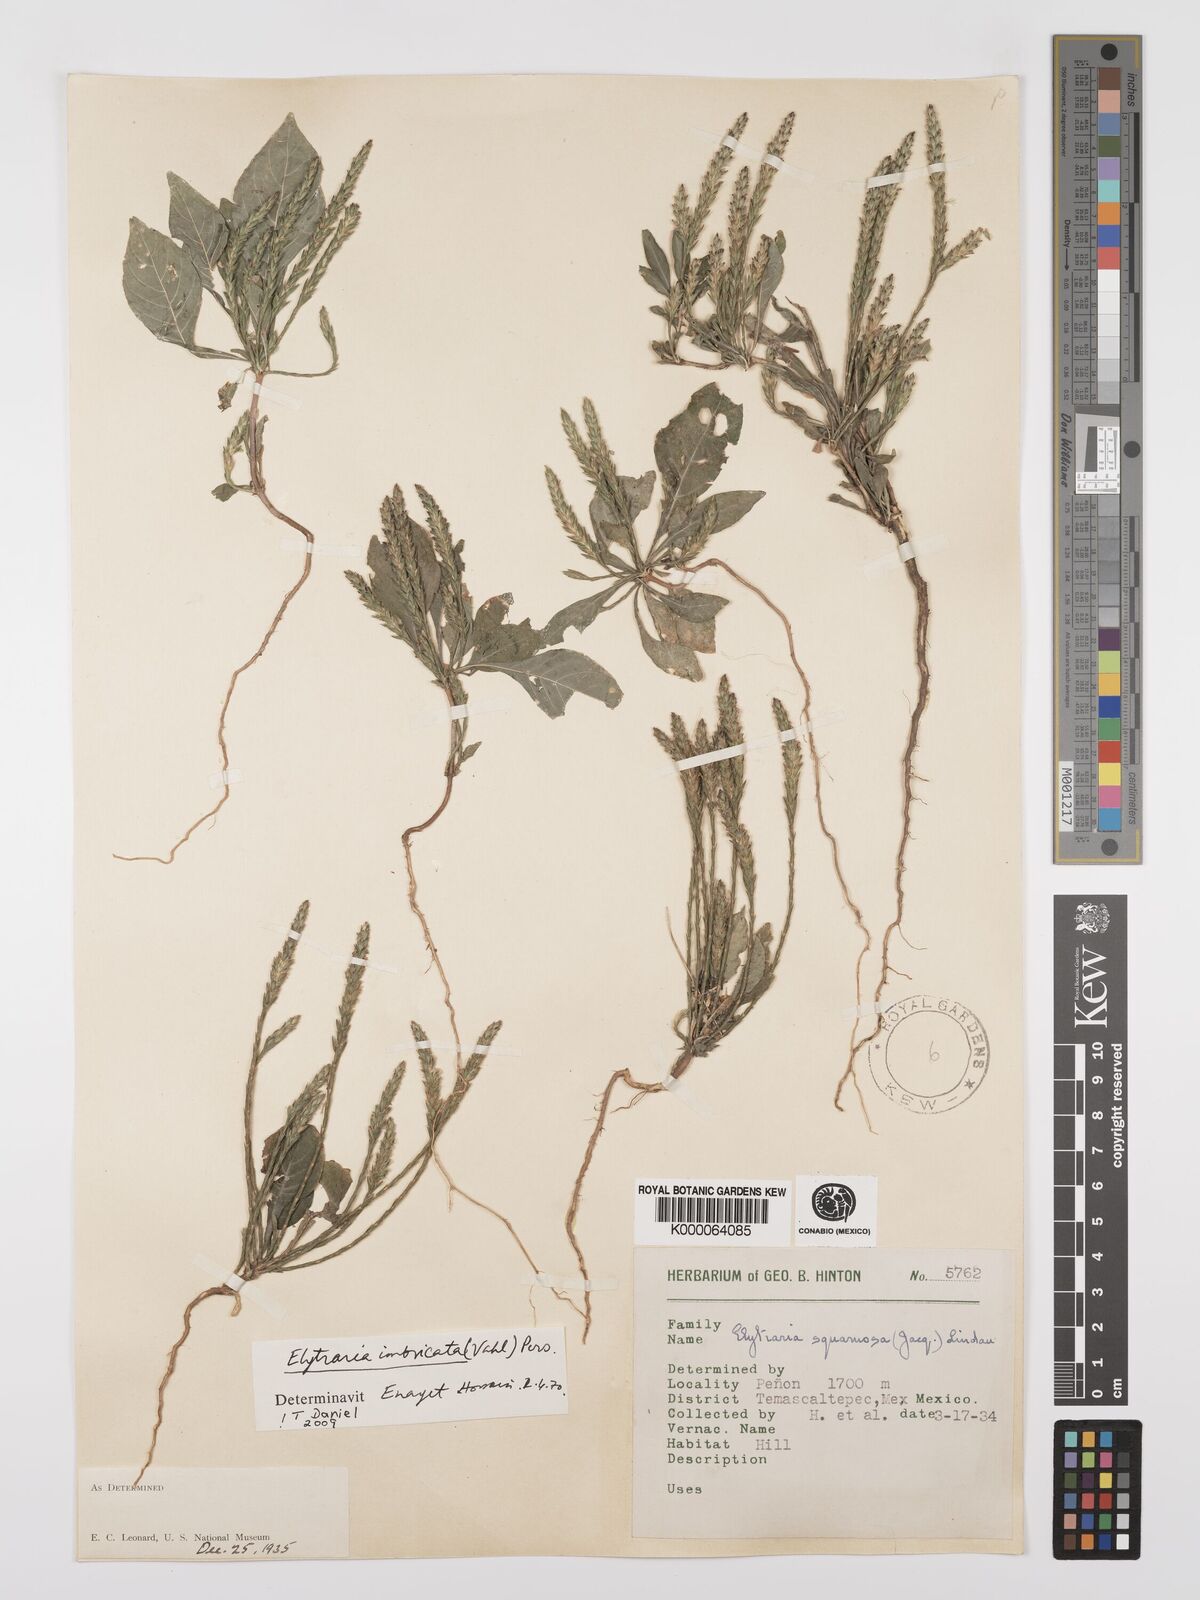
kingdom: Plantae
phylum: Tracheophyta
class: Magnoliopsida
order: Lamiales
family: Acanthaceae
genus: Elytraria
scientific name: Elytraria imbricata
